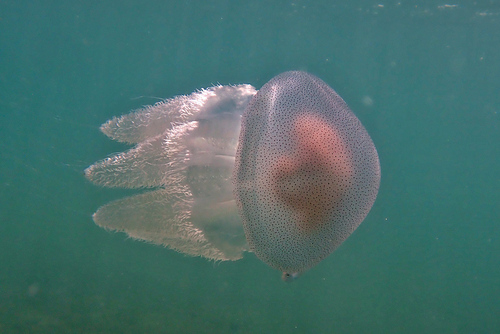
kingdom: Animalia
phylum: Cnidaria
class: Scyphozoa
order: Rhizostomeae
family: Catostylidae
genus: Acromitus
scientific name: Acromitus flagellatus
